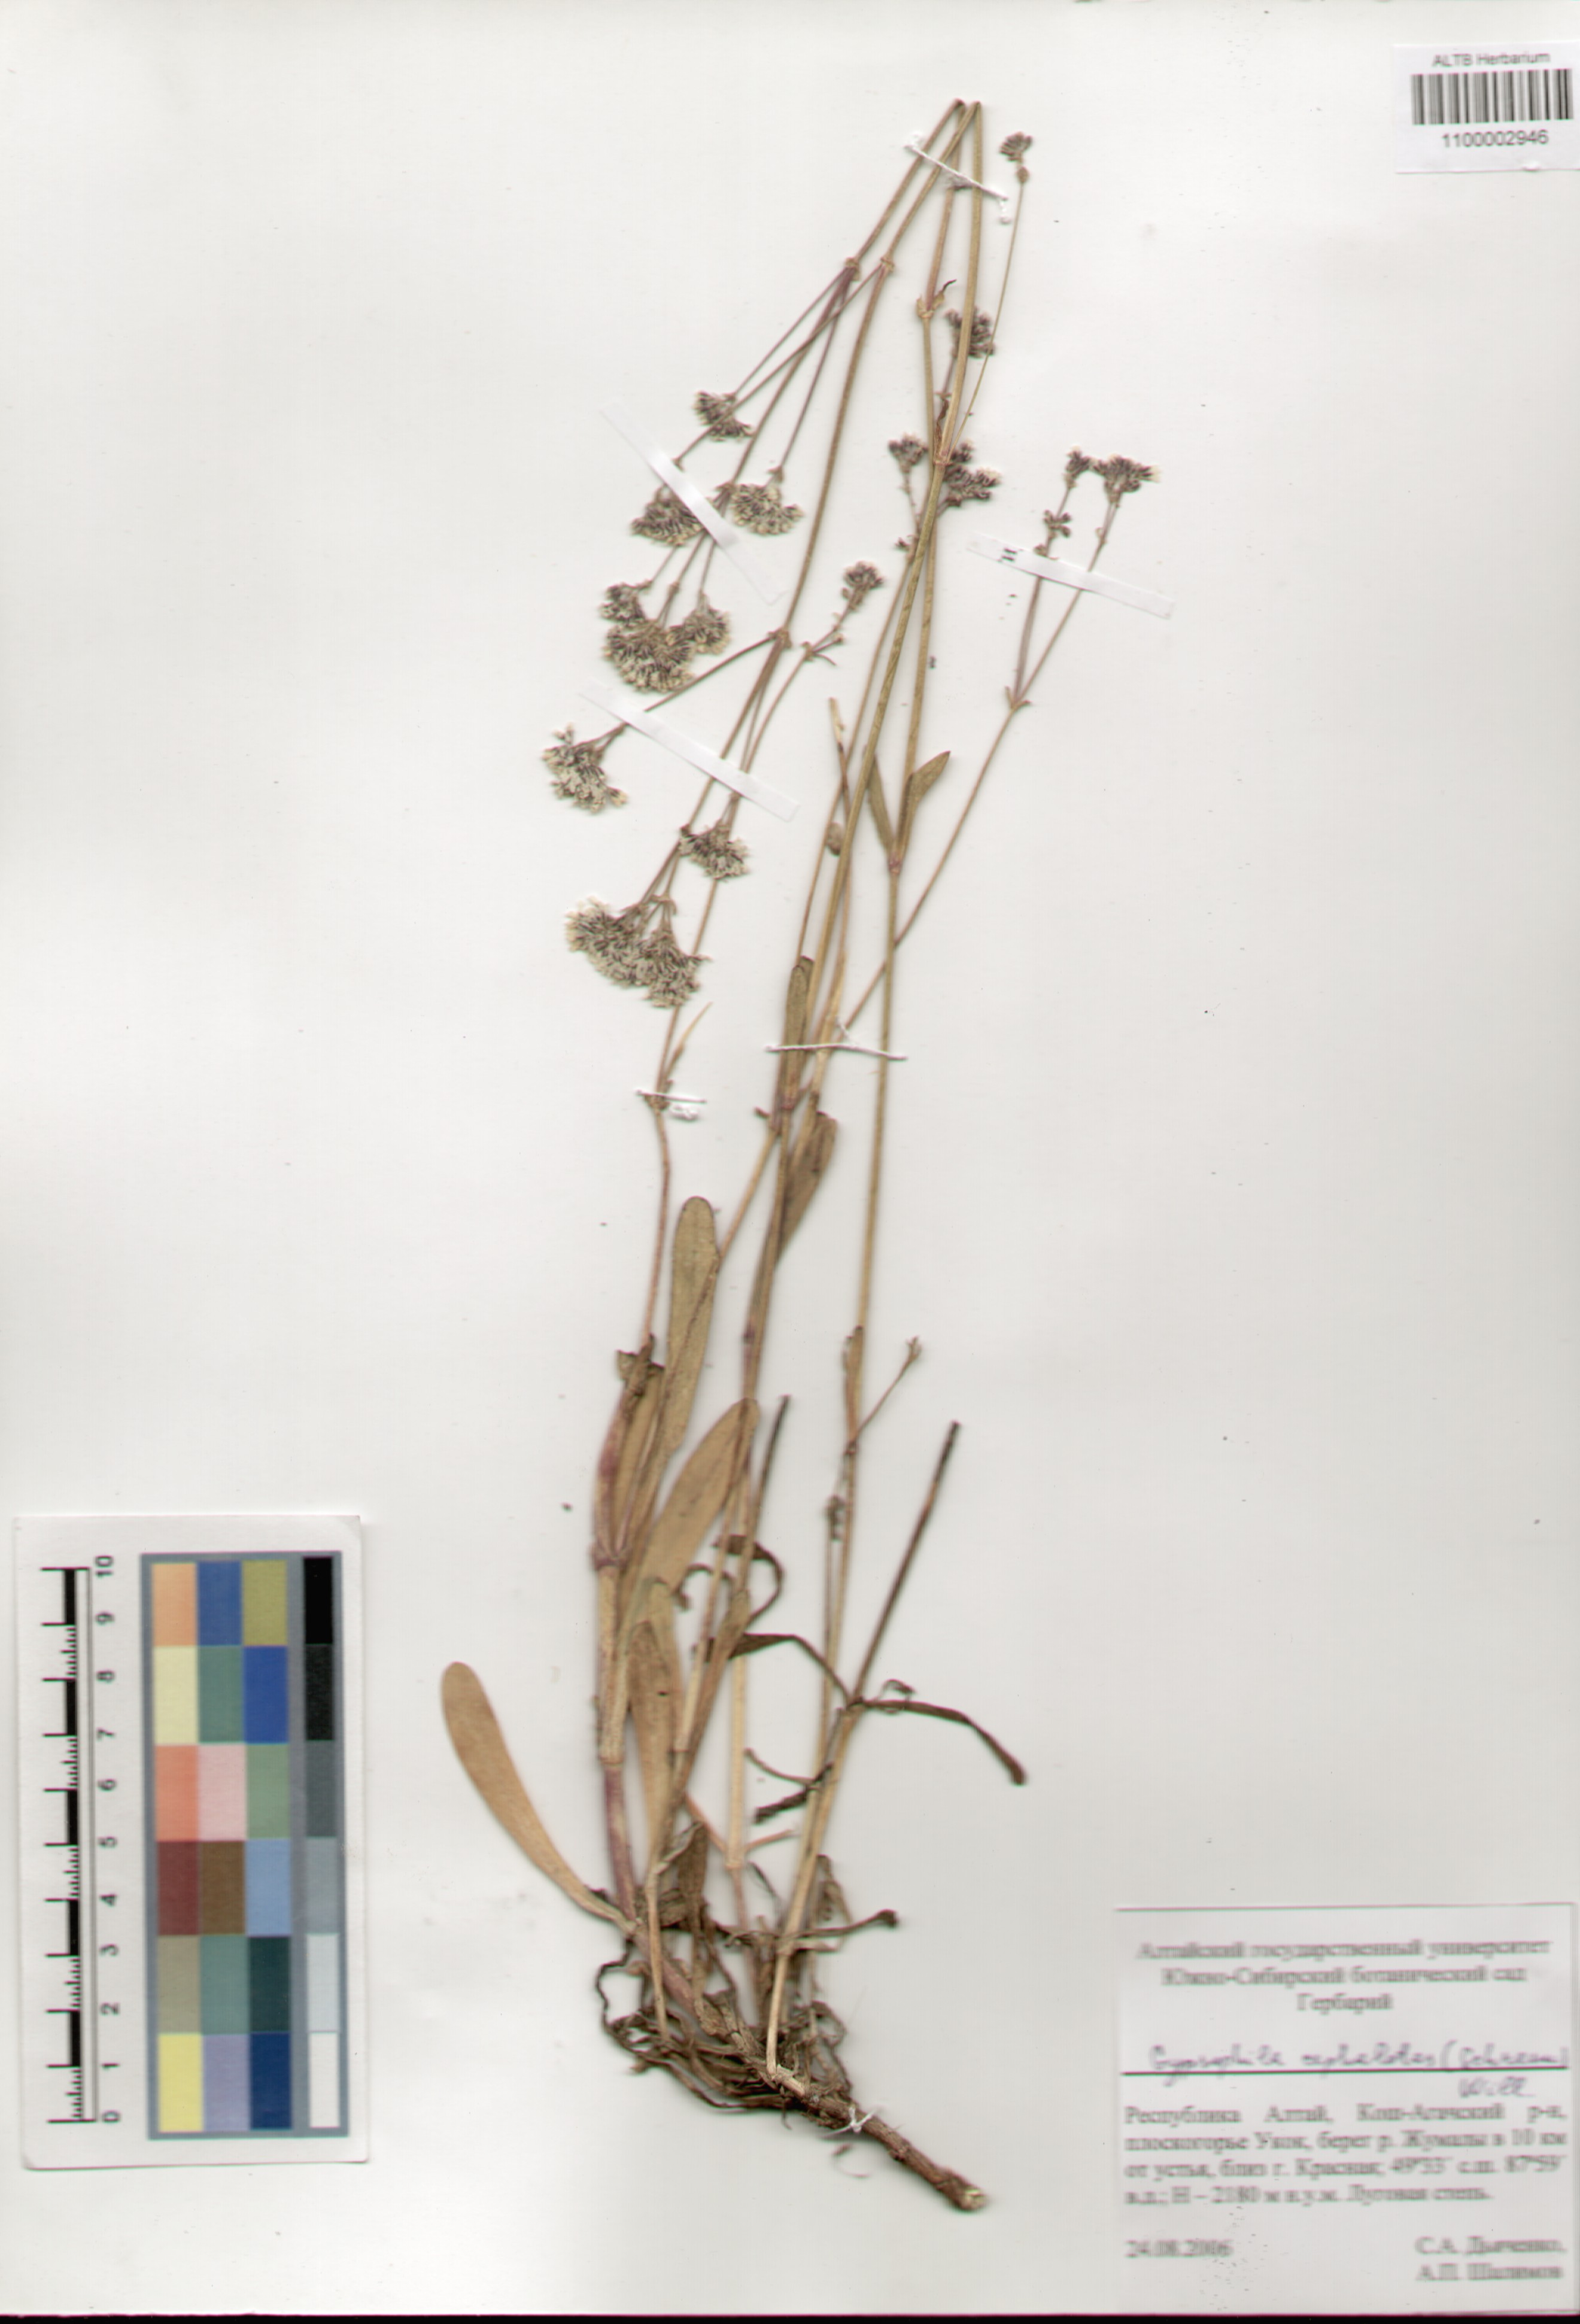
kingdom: Plantae
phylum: Tracheophyta
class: Magnoliopsida
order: Caryophyllales
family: Caryophyllaceae
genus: Gypsophila
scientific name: Gypsophila cephalotes
